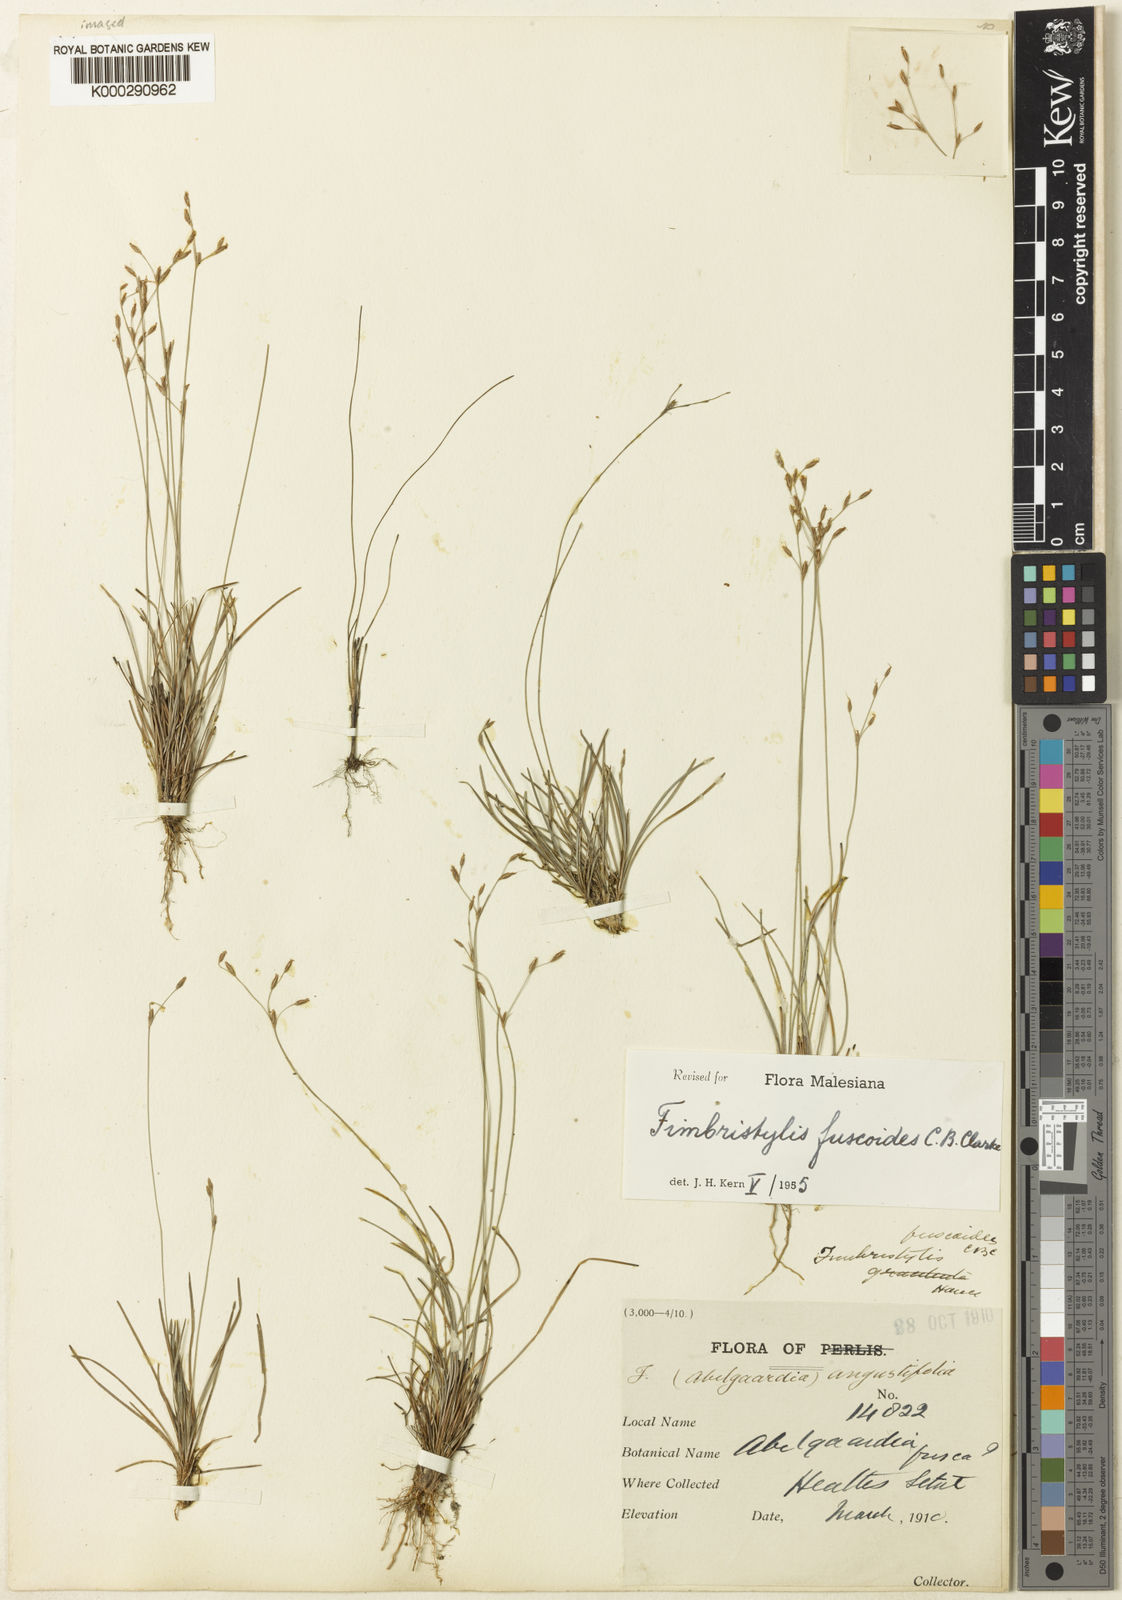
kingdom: Plantae
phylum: Tracheophyta
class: Liliopsida
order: Poales
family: Cyperaceae
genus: Fimbristylis
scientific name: Fimbristylis fuscoides
